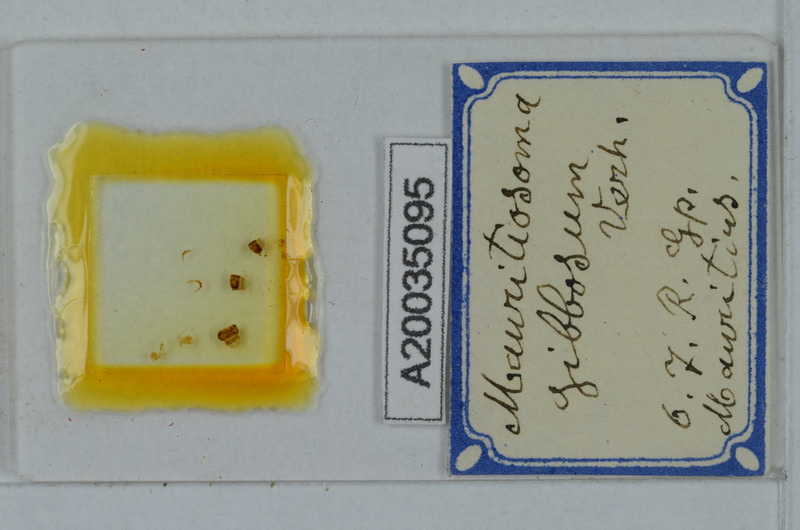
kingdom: Animalia
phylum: Arthropoda
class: Diplopoda
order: Polydesmida
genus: Mauritiosoma
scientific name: Mauritiosoma gibbosum
